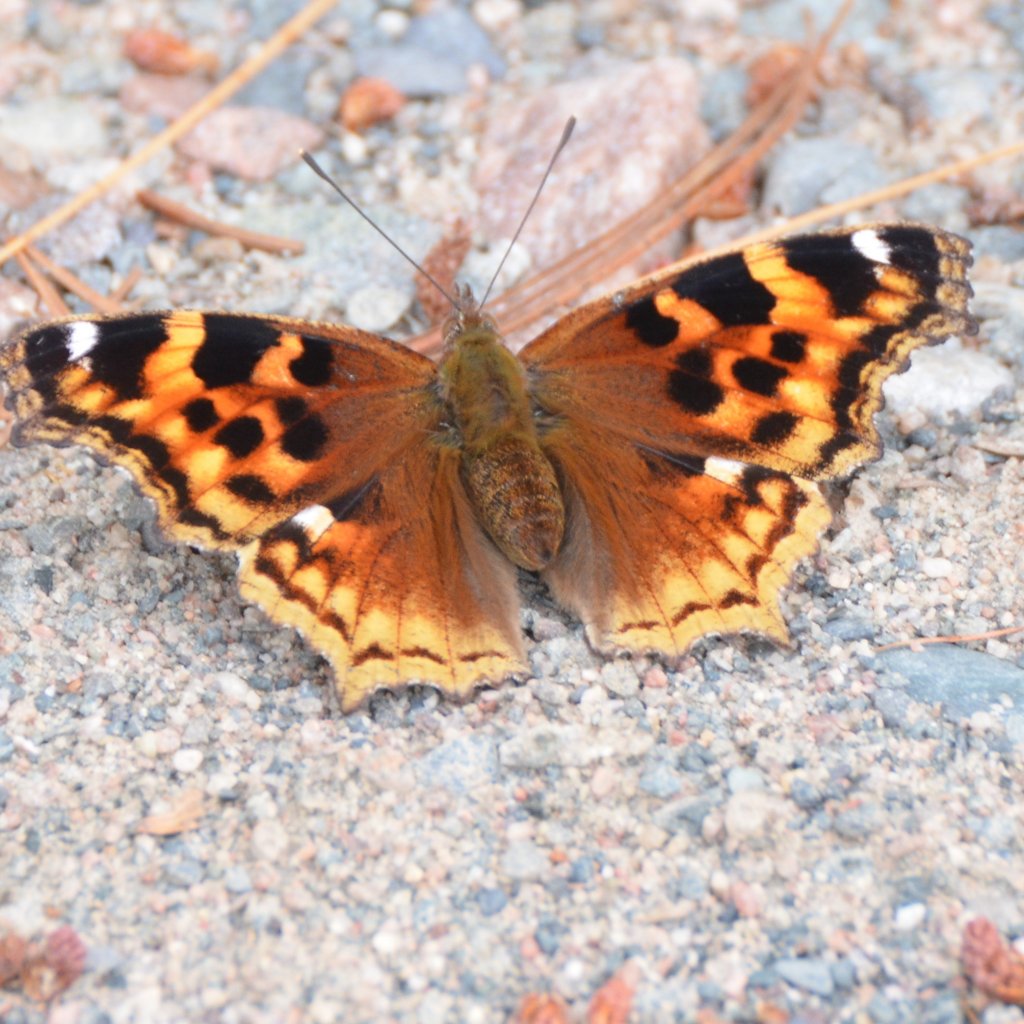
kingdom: Animalia
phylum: Arthropoda
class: Insecta
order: Lepidoptera
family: Nymphalidae
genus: Polygonia
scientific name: Polygonia vaualbum
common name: Compton Tortoiseshell
